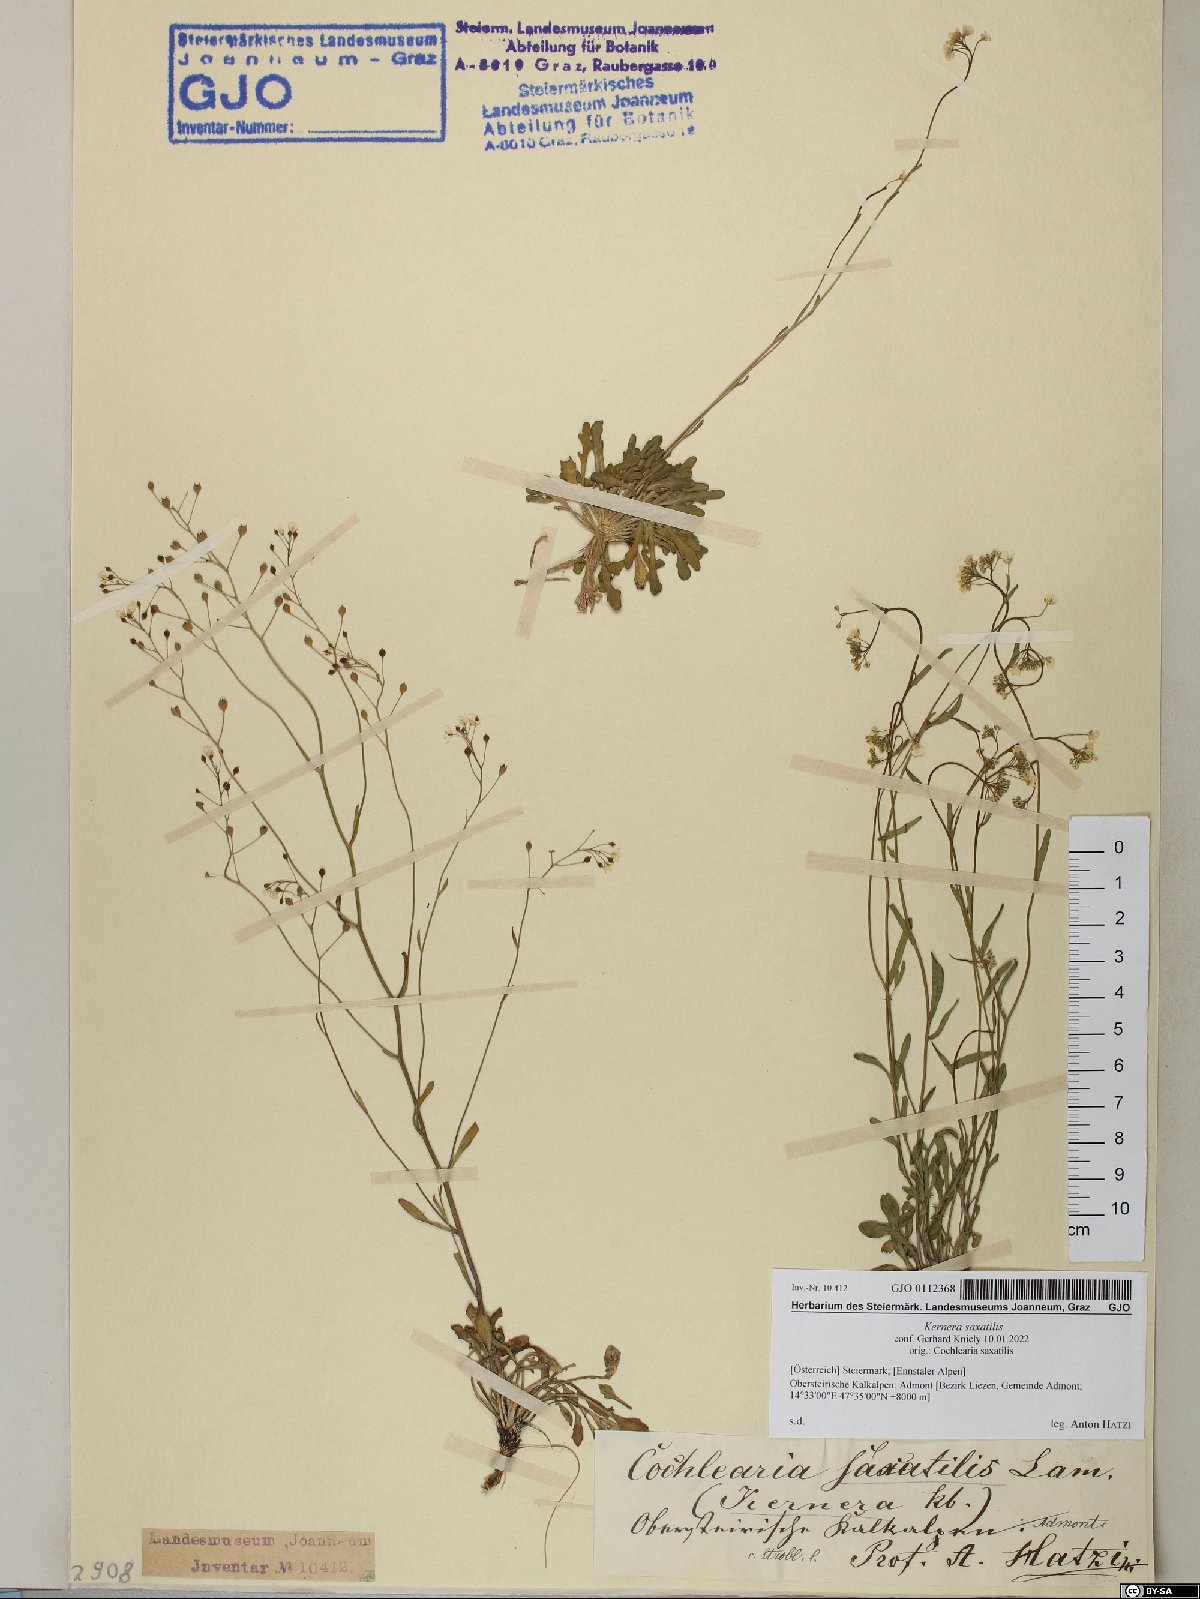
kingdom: Plantae
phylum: Tracheophyta
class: Magnoliopsida
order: Brassicales
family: Brassicaceae
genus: Kernera
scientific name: Kernera saxatilis
